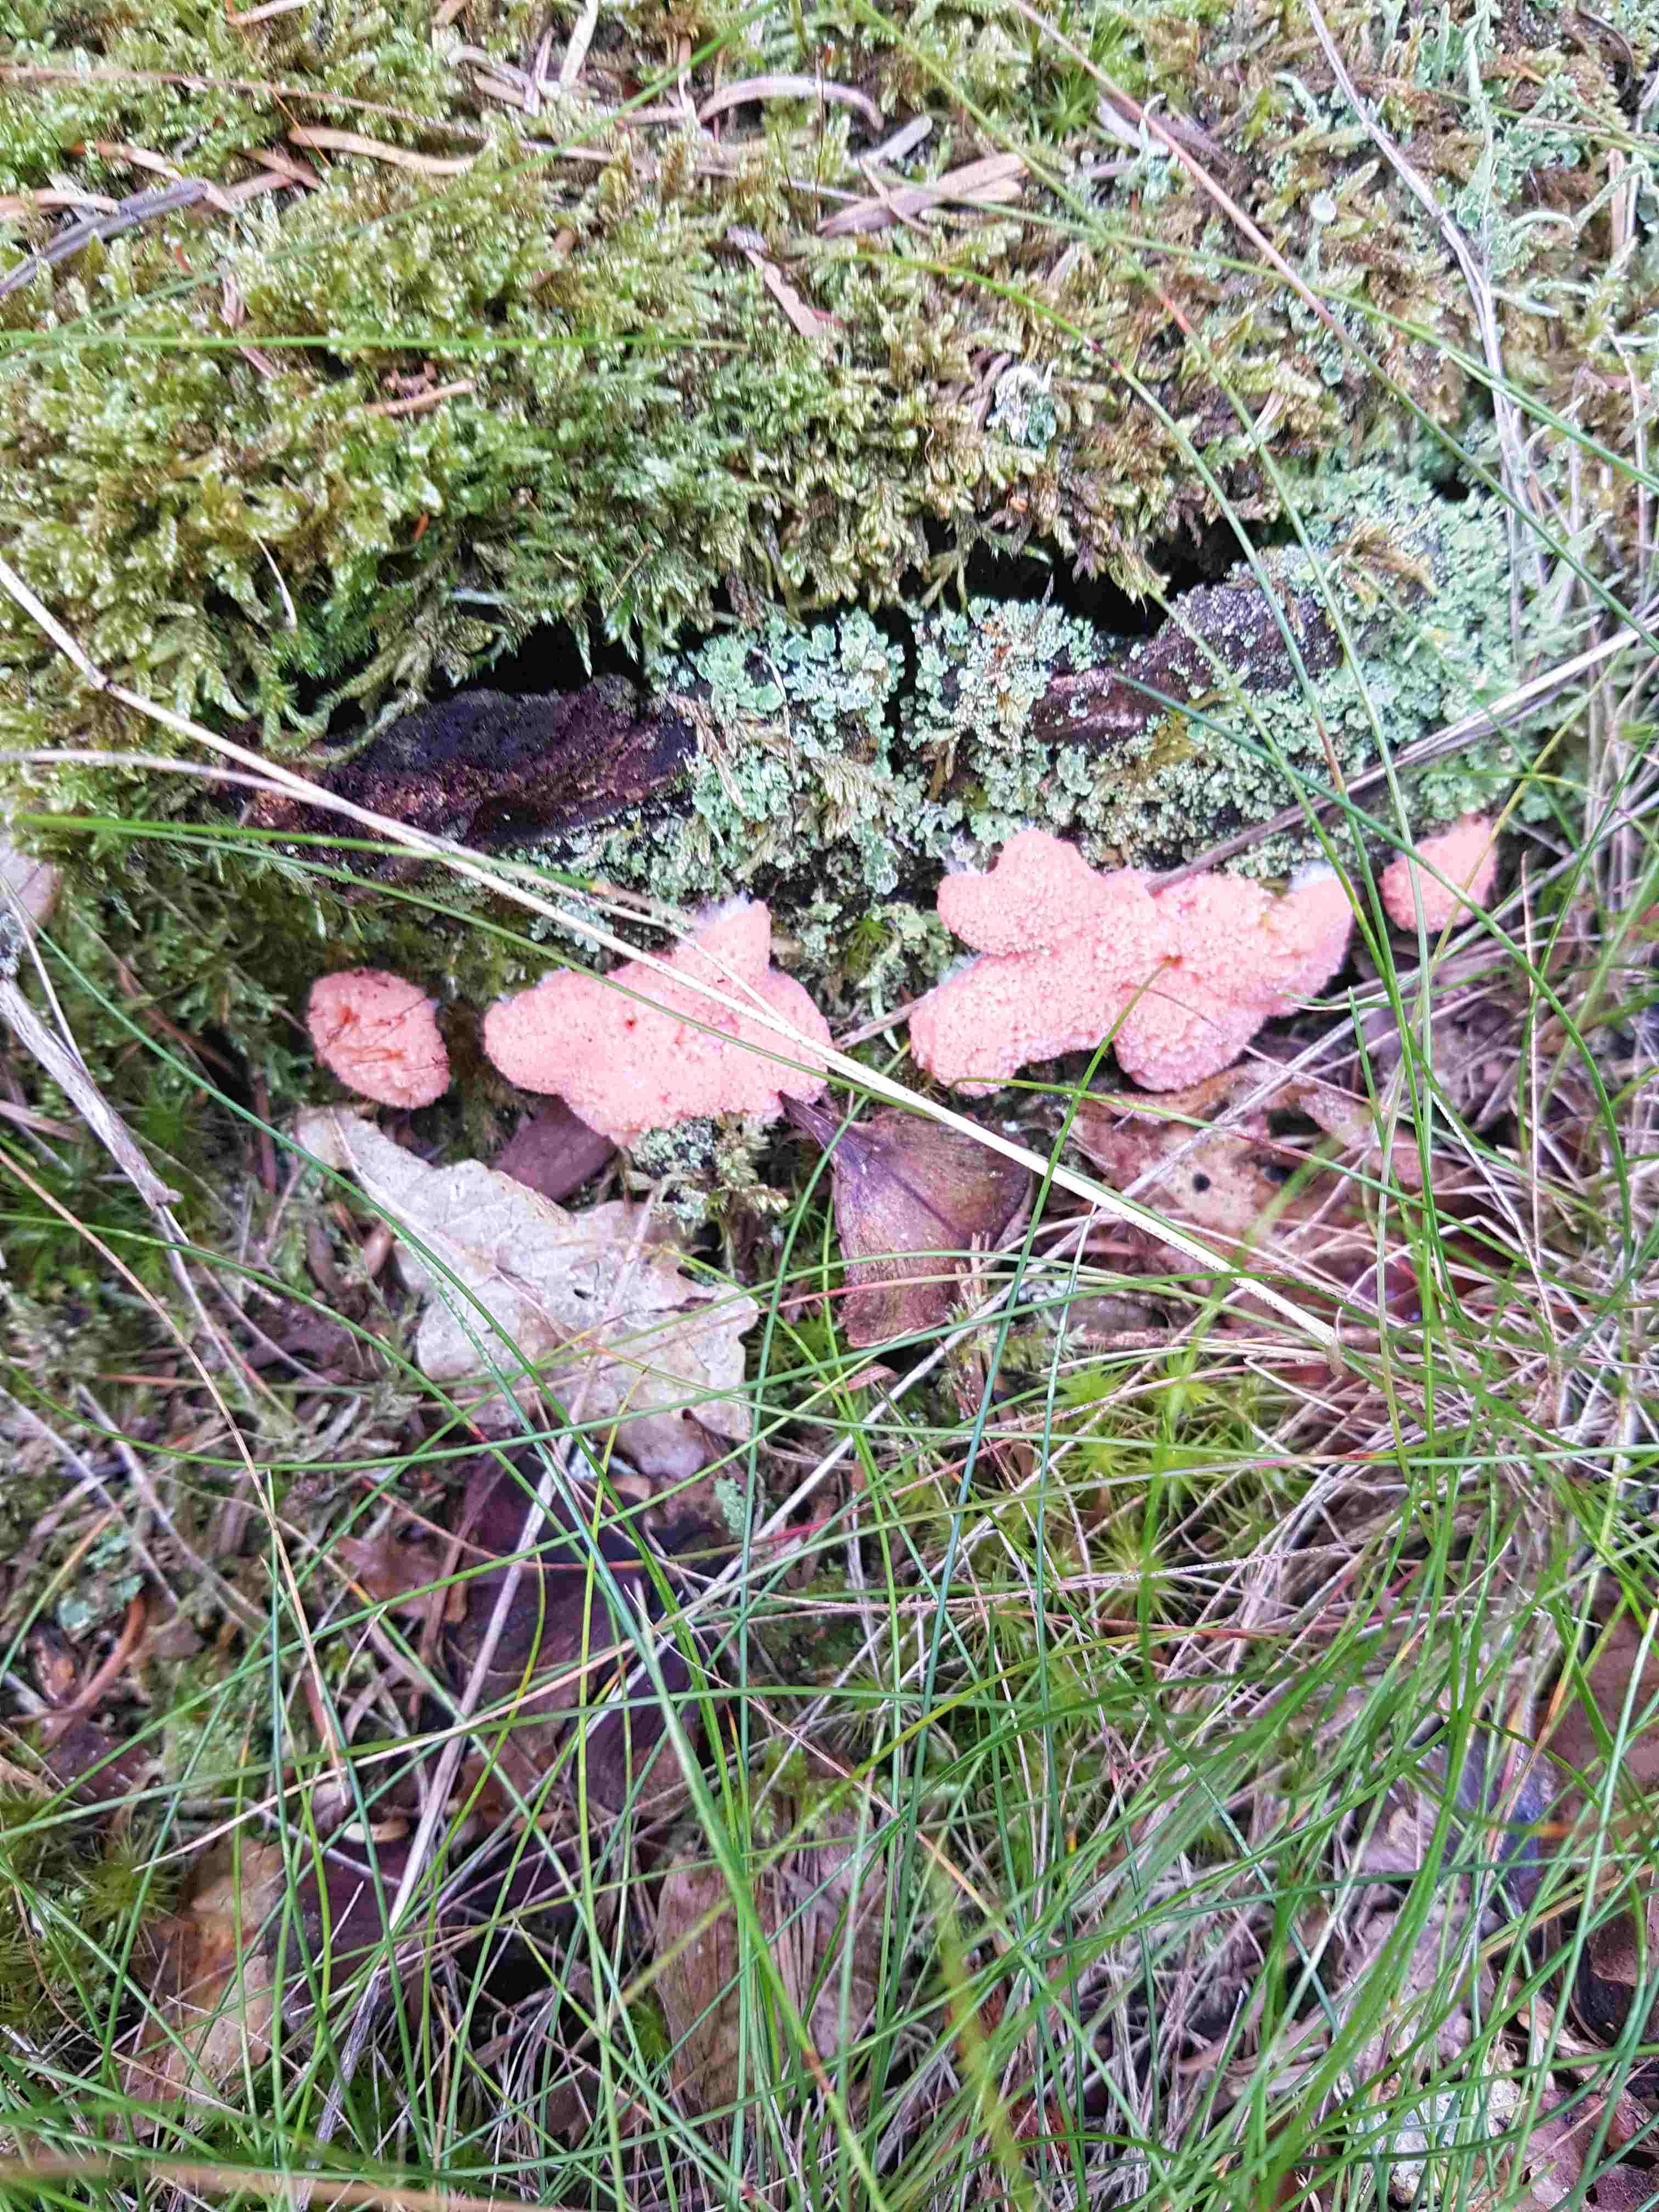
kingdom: Protozoa
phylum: Mycetozoa
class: Myxomycetes
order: Cribrariales
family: Tubiferaceae
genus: Tubifera
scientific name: Tubifera ferruginosa
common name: kanel-støvrør
